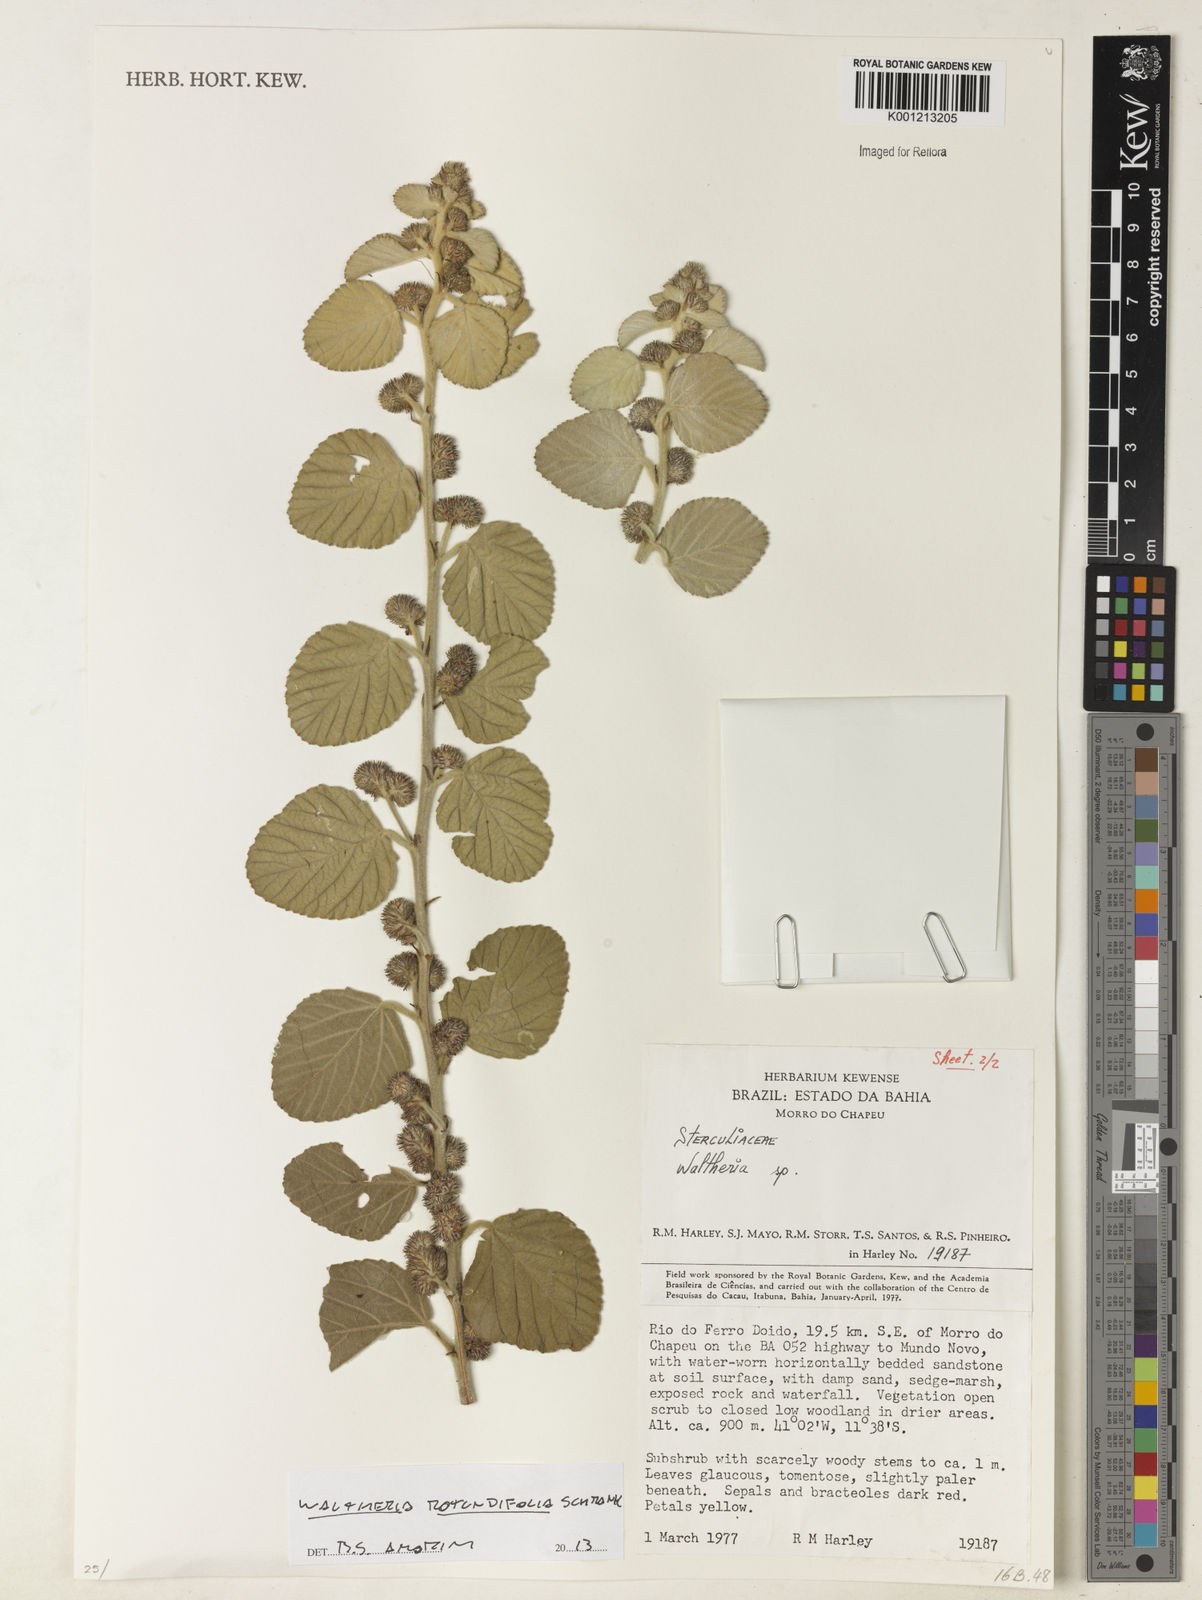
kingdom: Plantae
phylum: Tracheophyta
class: Magnoliopsida
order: Malvales
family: Malvaceae
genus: Waltheria
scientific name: Waltheria rotundifolia
